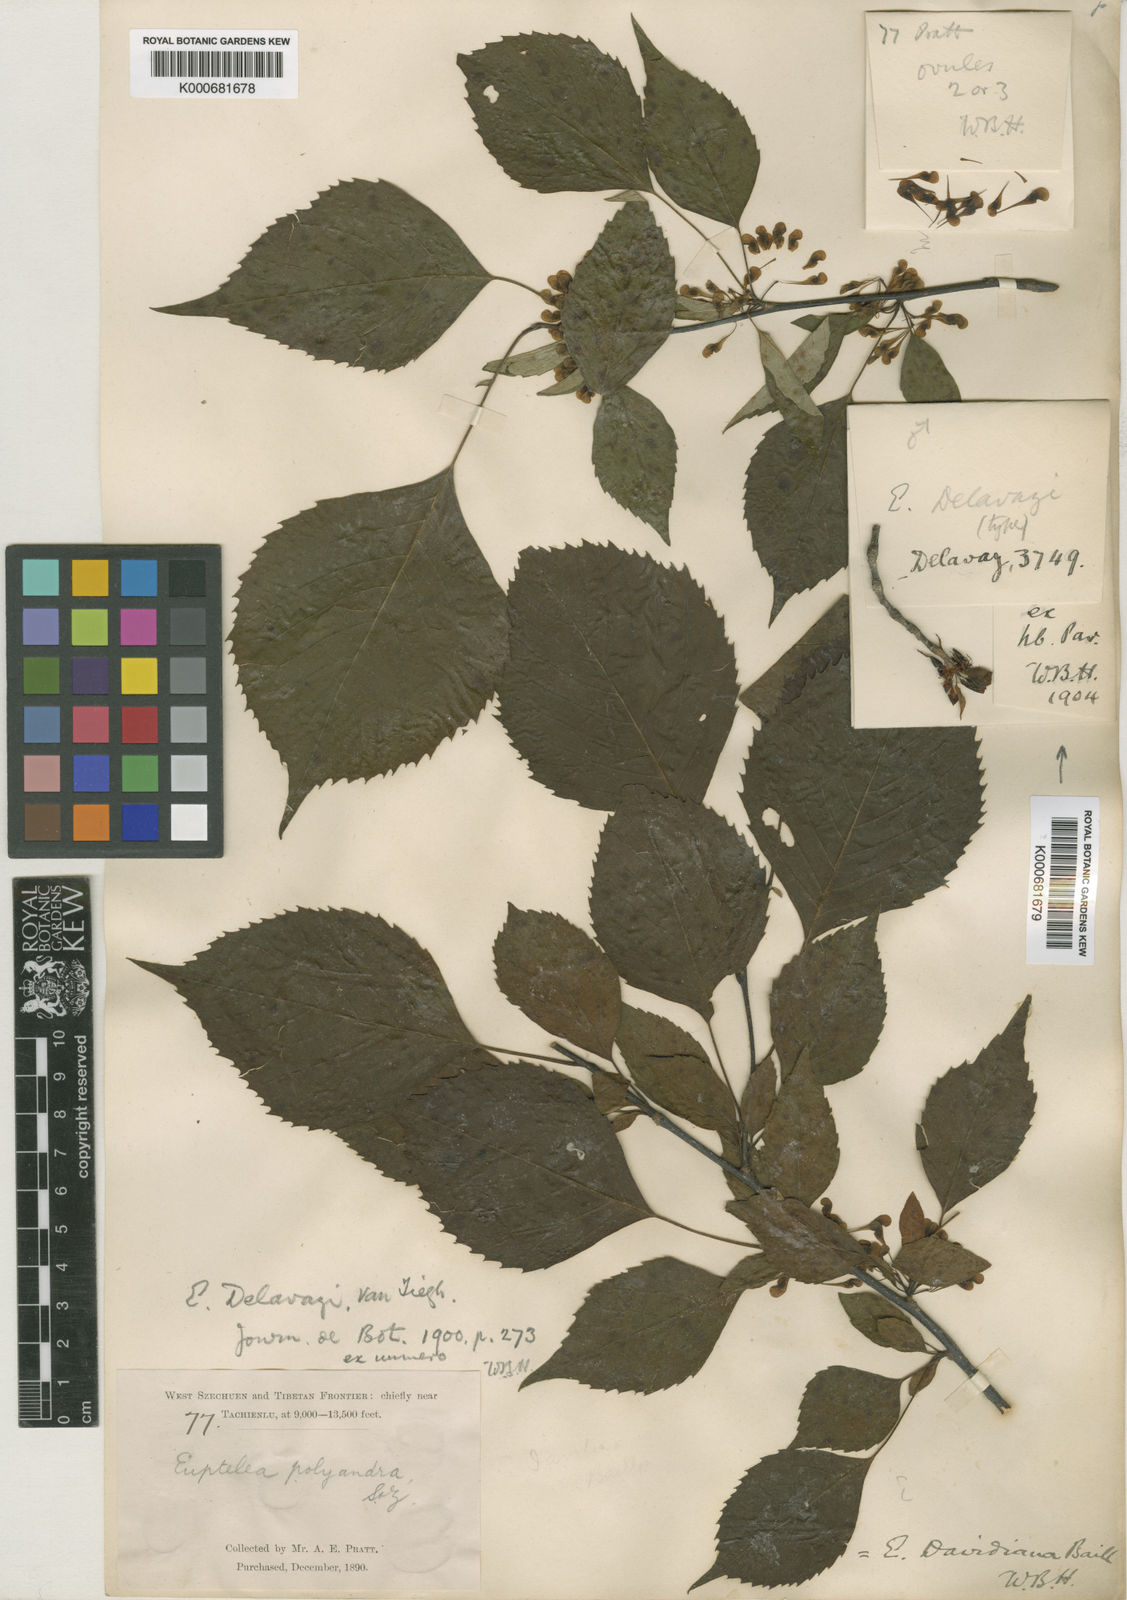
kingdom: Plantae
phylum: Tracheophyta
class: Magnoliopsida
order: Ranunculales
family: Eupteleaceae
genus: Euptelea
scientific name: Euptelea pleiosperma
